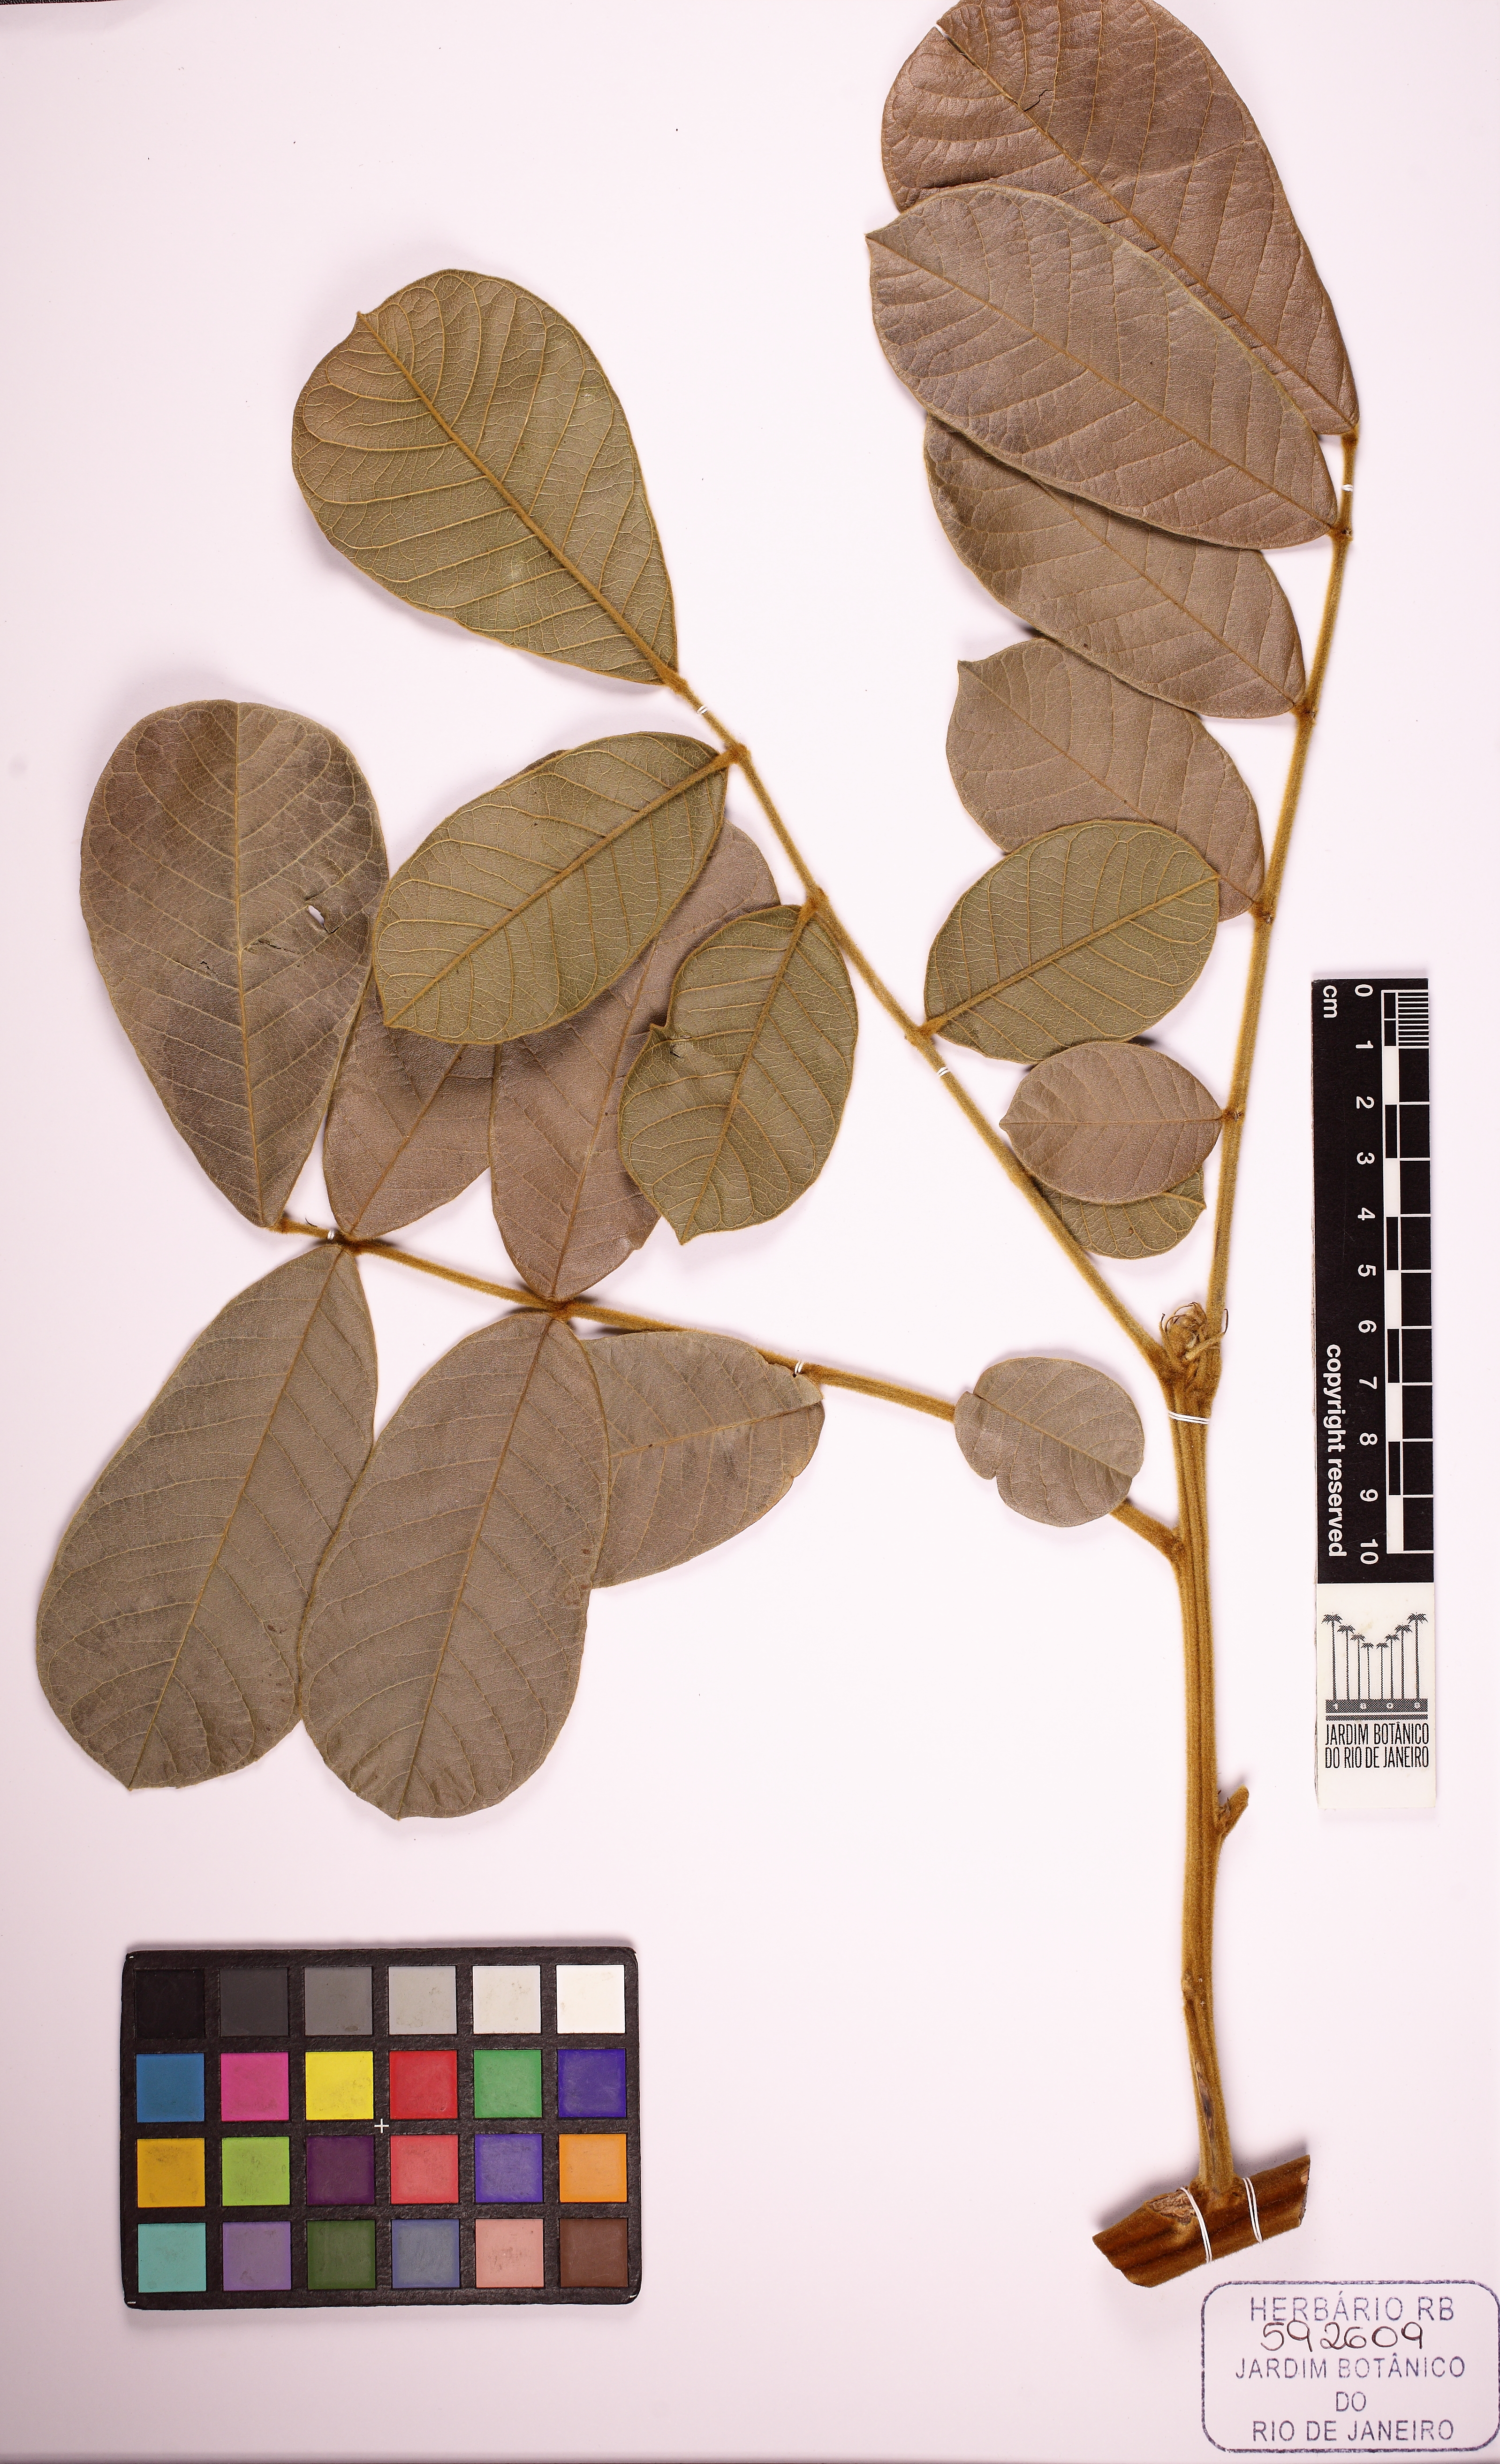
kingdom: Plantae
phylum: Tracheophyta
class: Magnoliopsida
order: Fabales
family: Fabaceae
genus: Ormosia
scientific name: Ormosia
